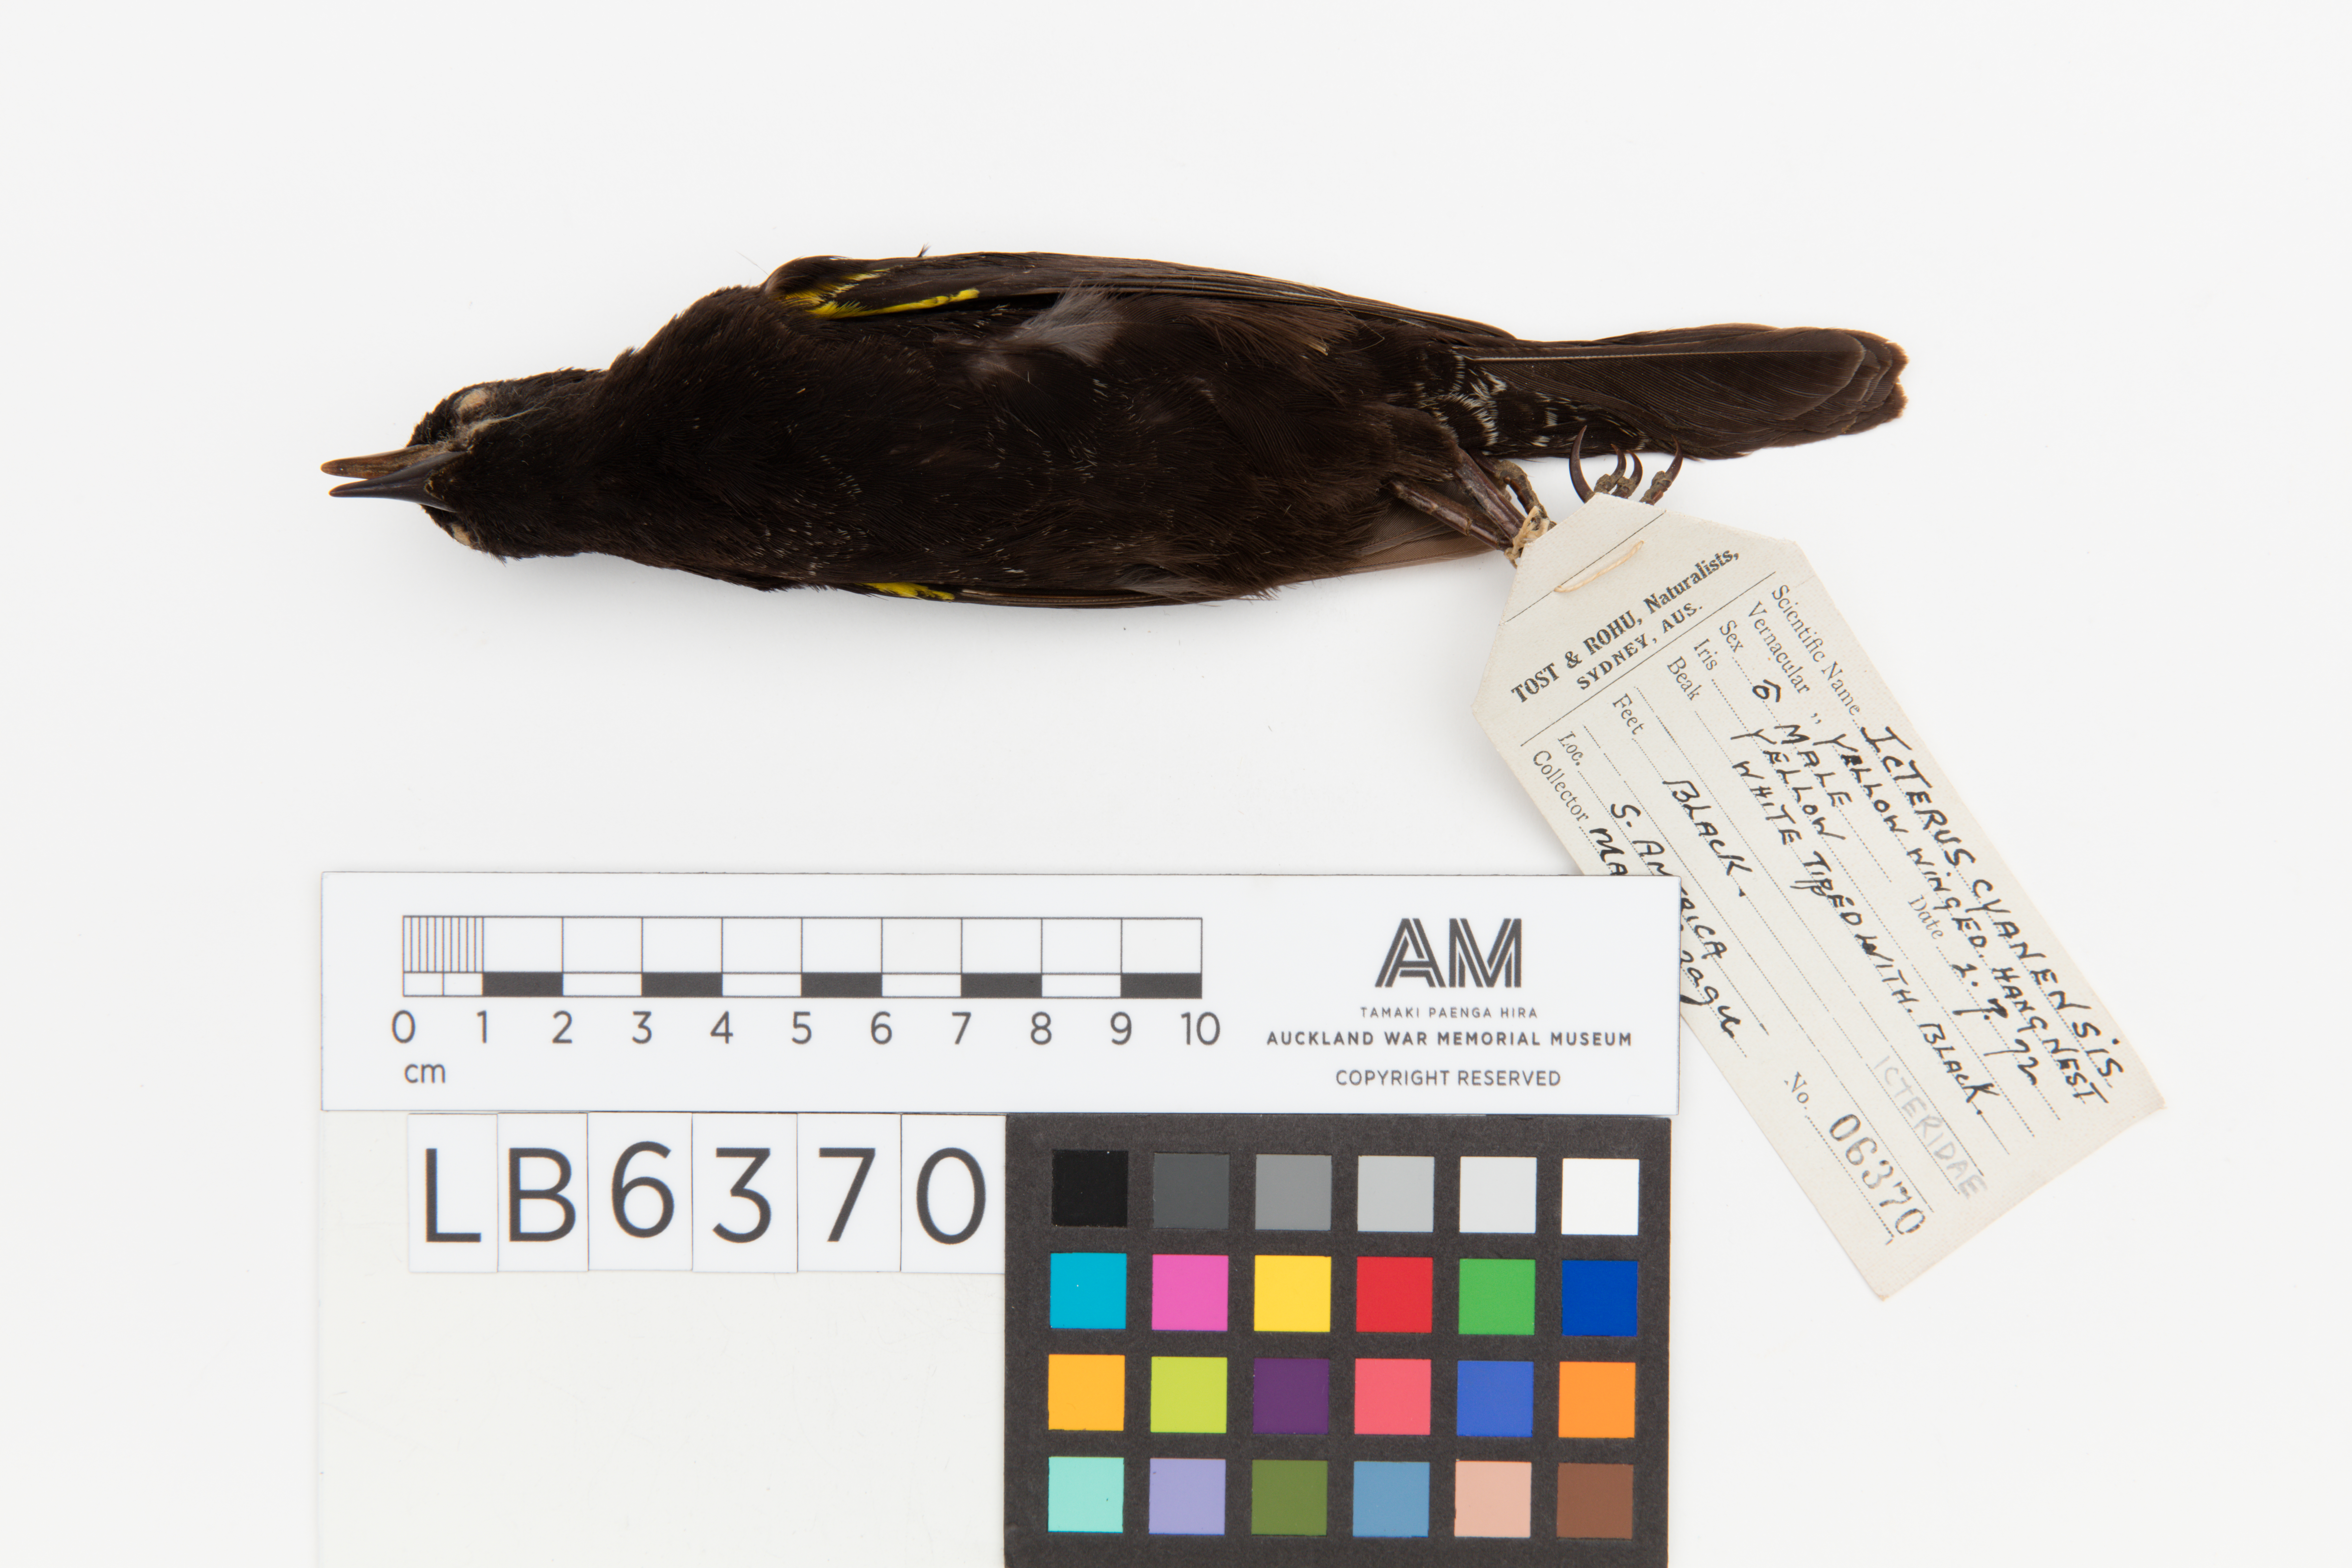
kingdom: Animalia
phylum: Chordata
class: Aves
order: Passeriformes
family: Icteridae
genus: Icterus
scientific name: Icterus cayanensis
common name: Epaulet oriole
